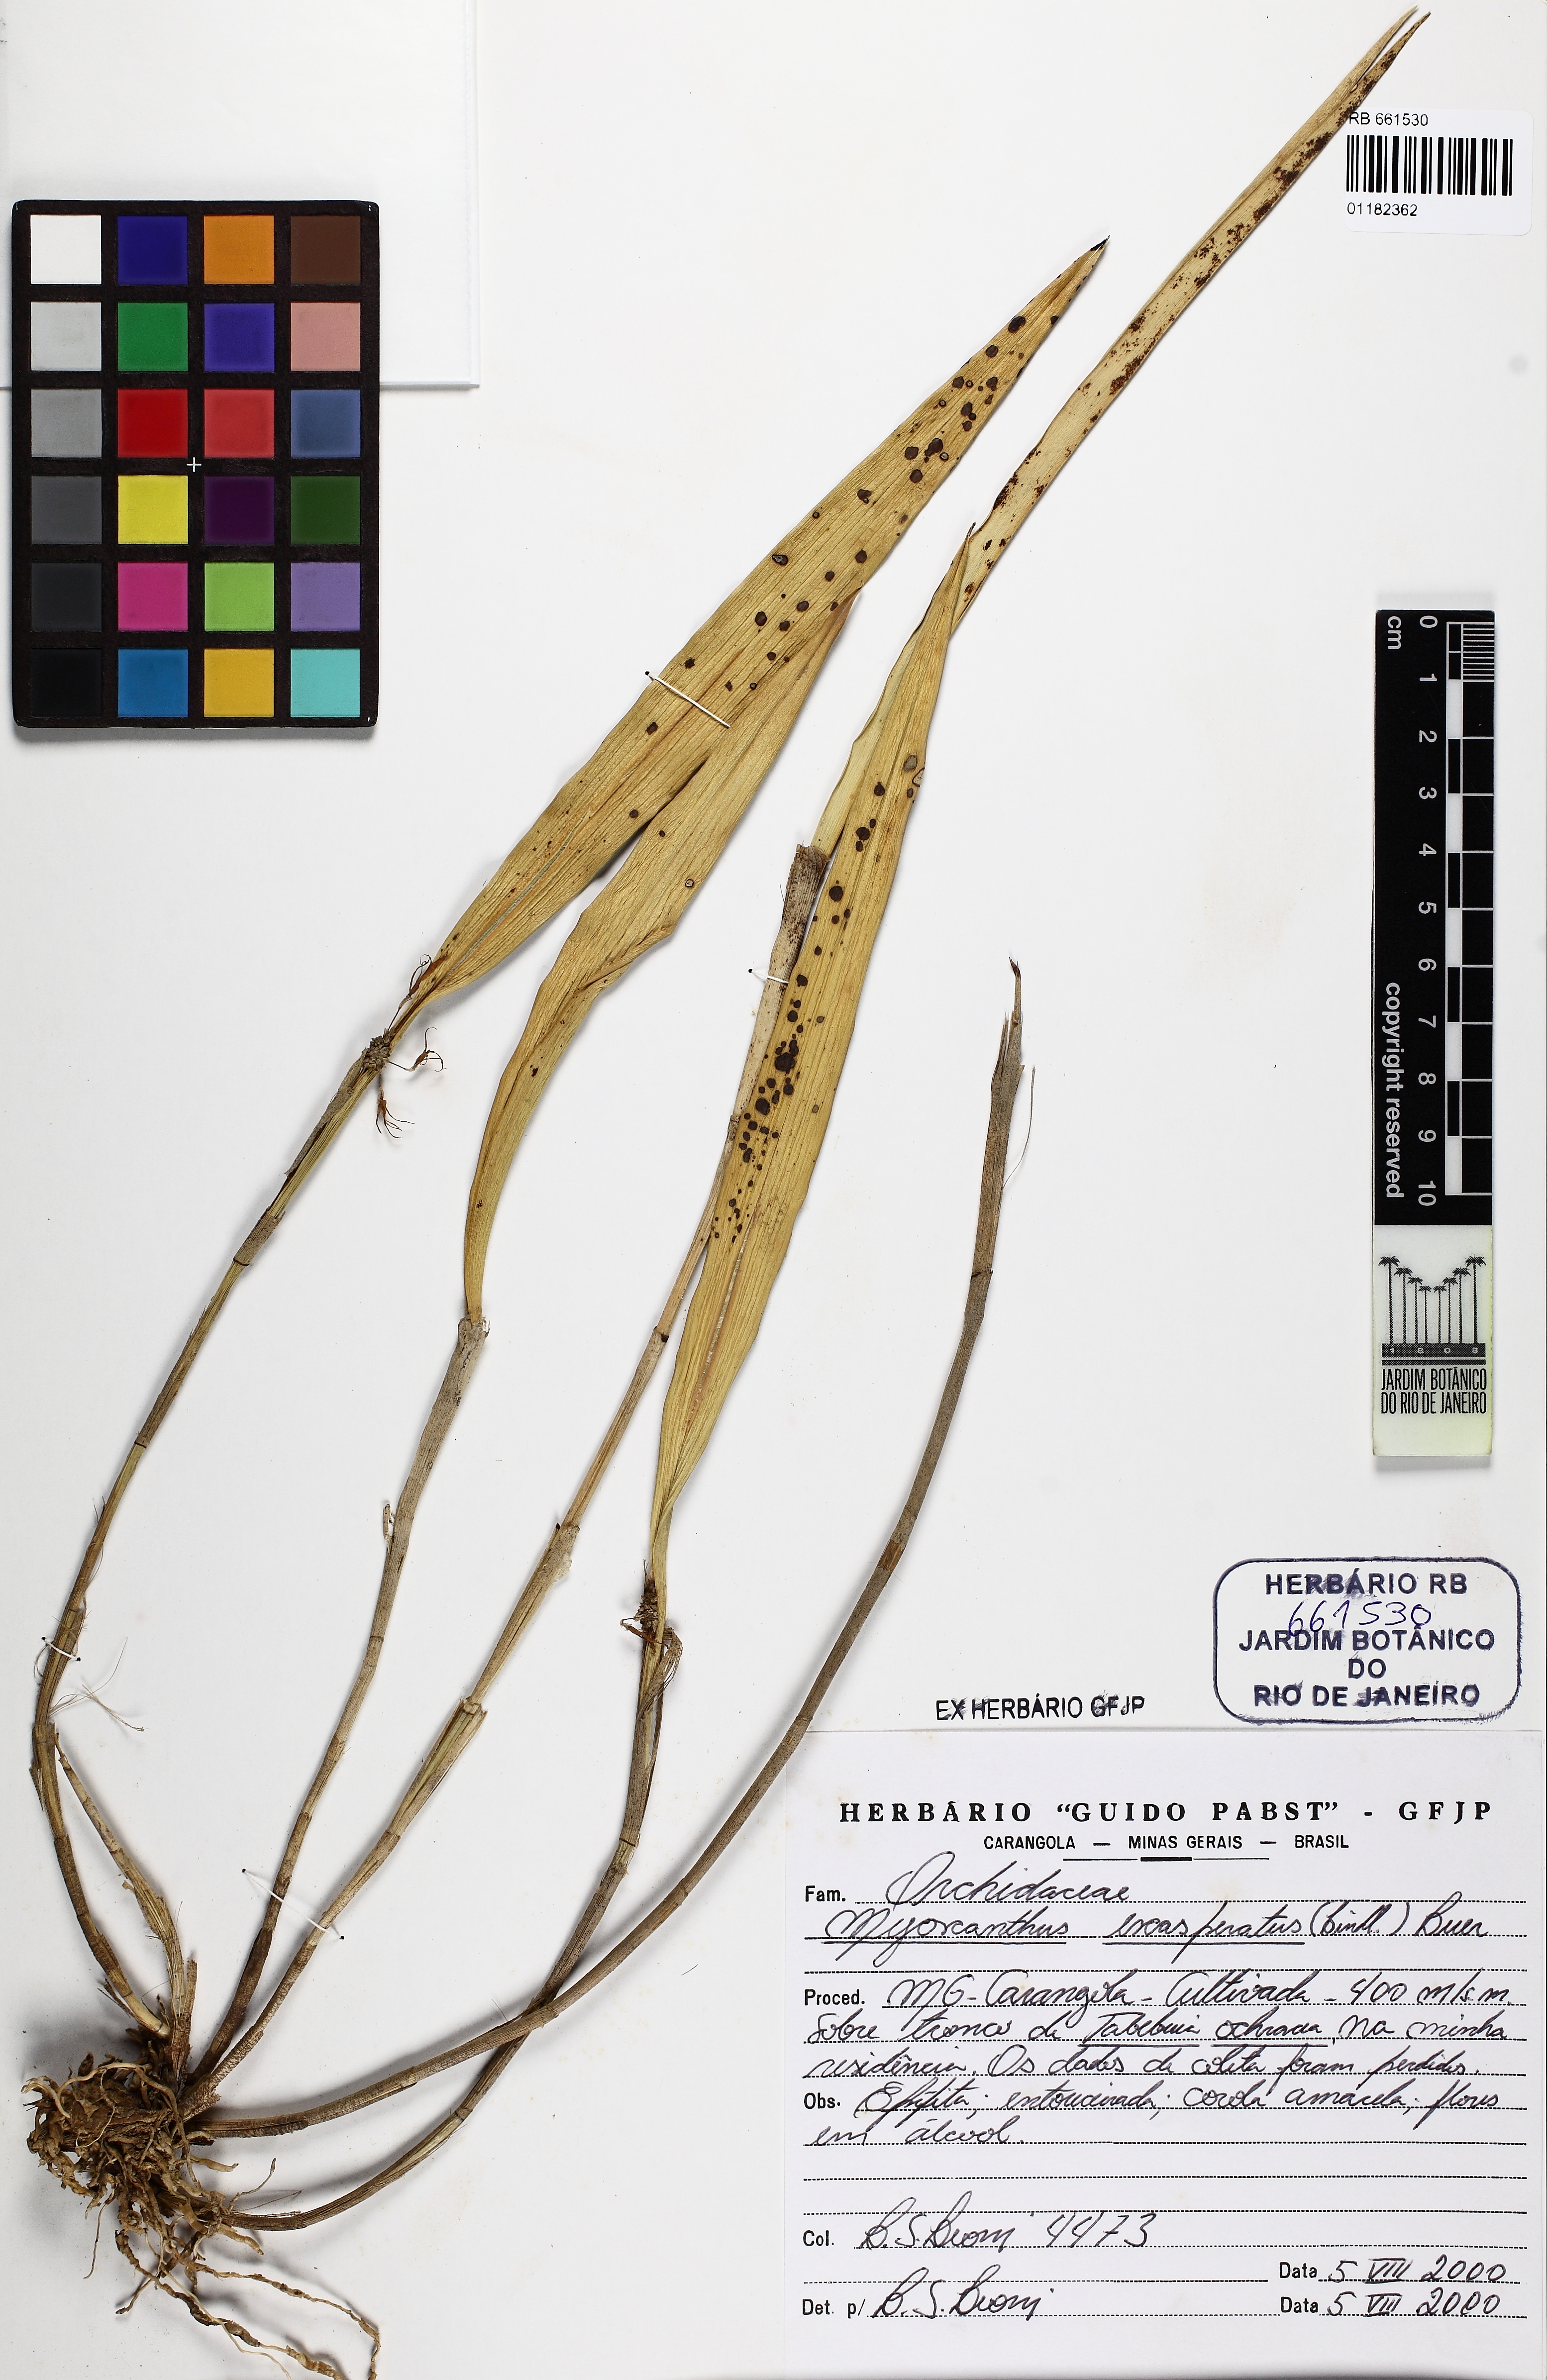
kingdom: Plantae
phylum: Tracheophyta
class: Liliopsida
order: Asparagales
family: Orchidaceae
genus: Myoxanthus
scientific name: Myoxanthus exasperatus
